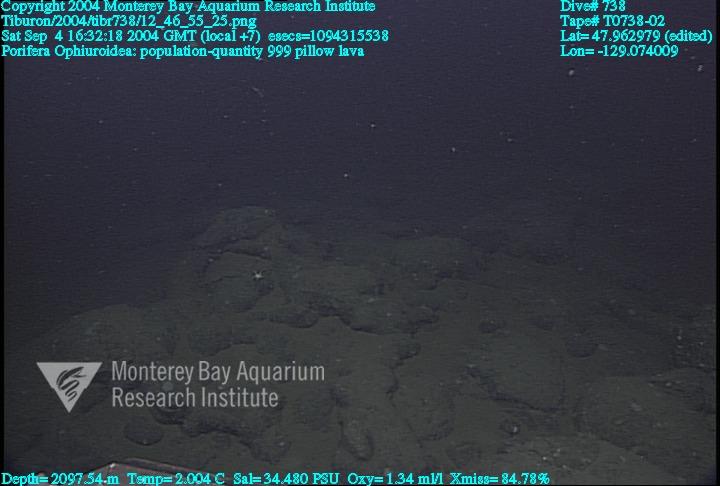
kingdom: Animalia
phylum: Porifera
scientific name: Porifera
